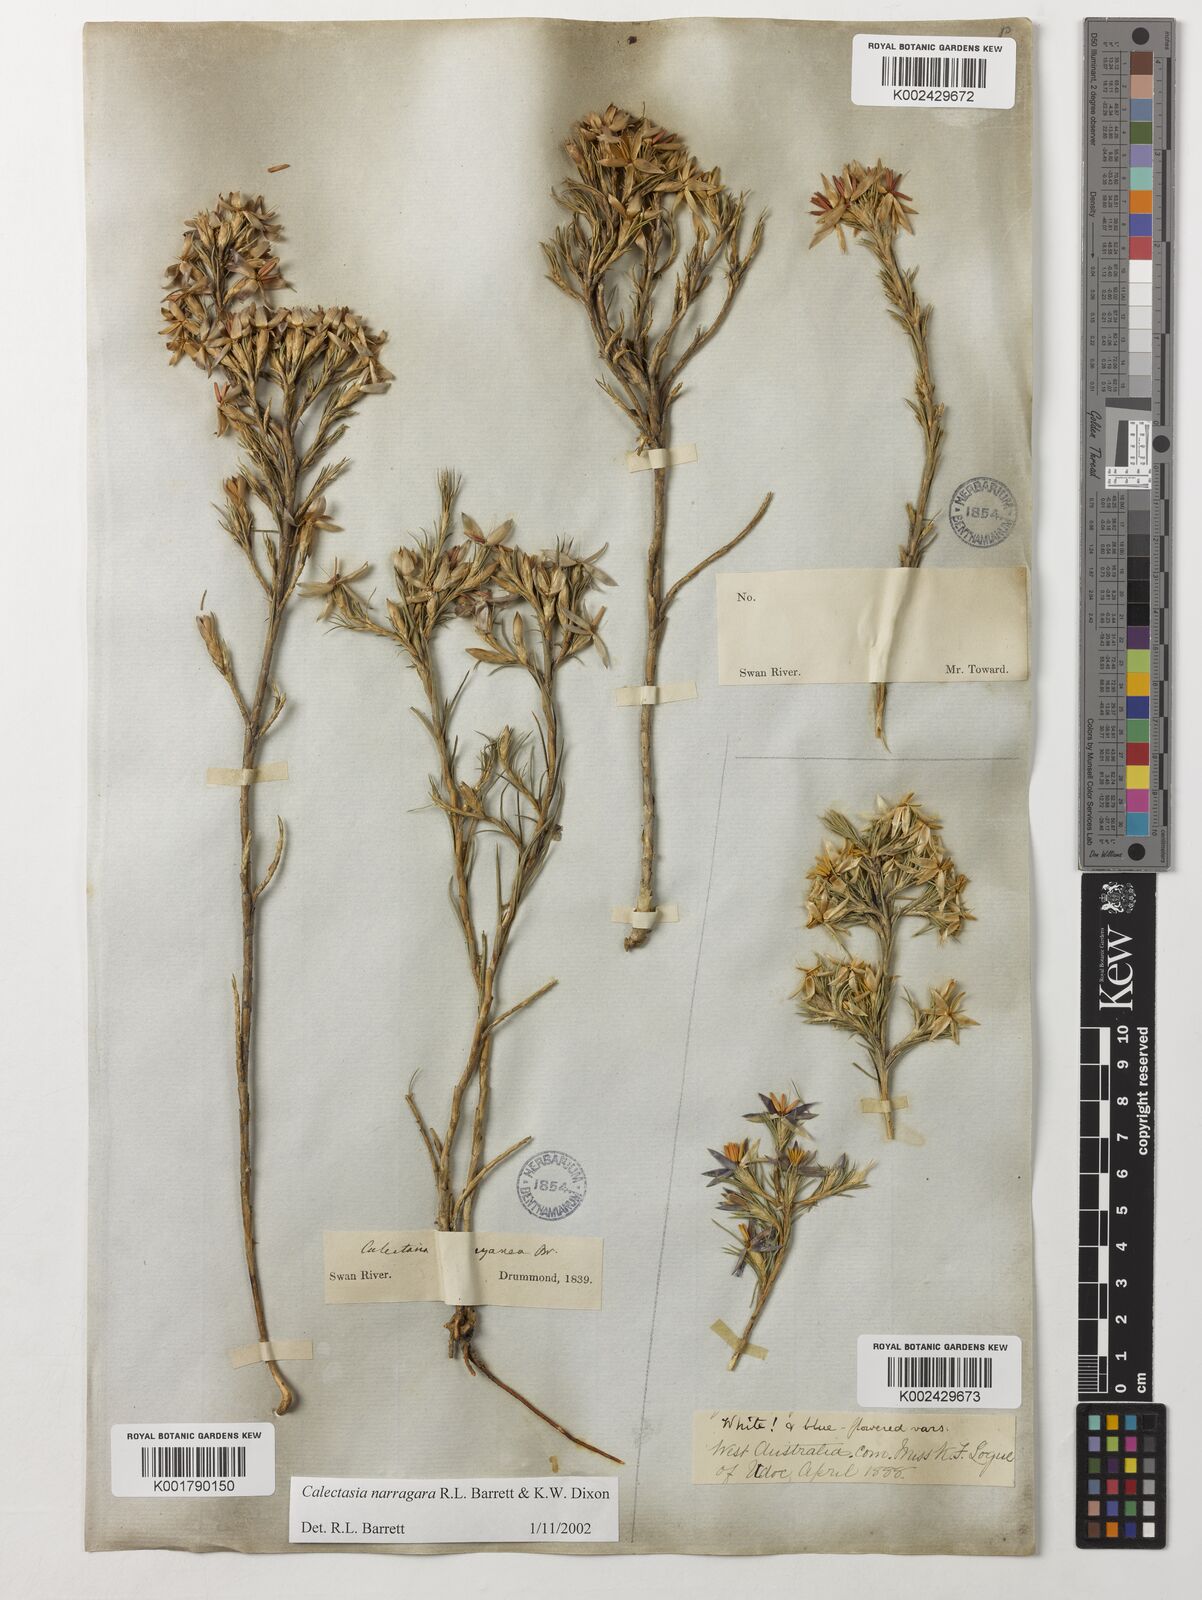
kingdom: Plantae
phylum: Tracheophyta
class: Liliopsida
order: Arecales
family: Dasypogonaceae
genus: Calectasia
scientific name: Calectasia narragara
